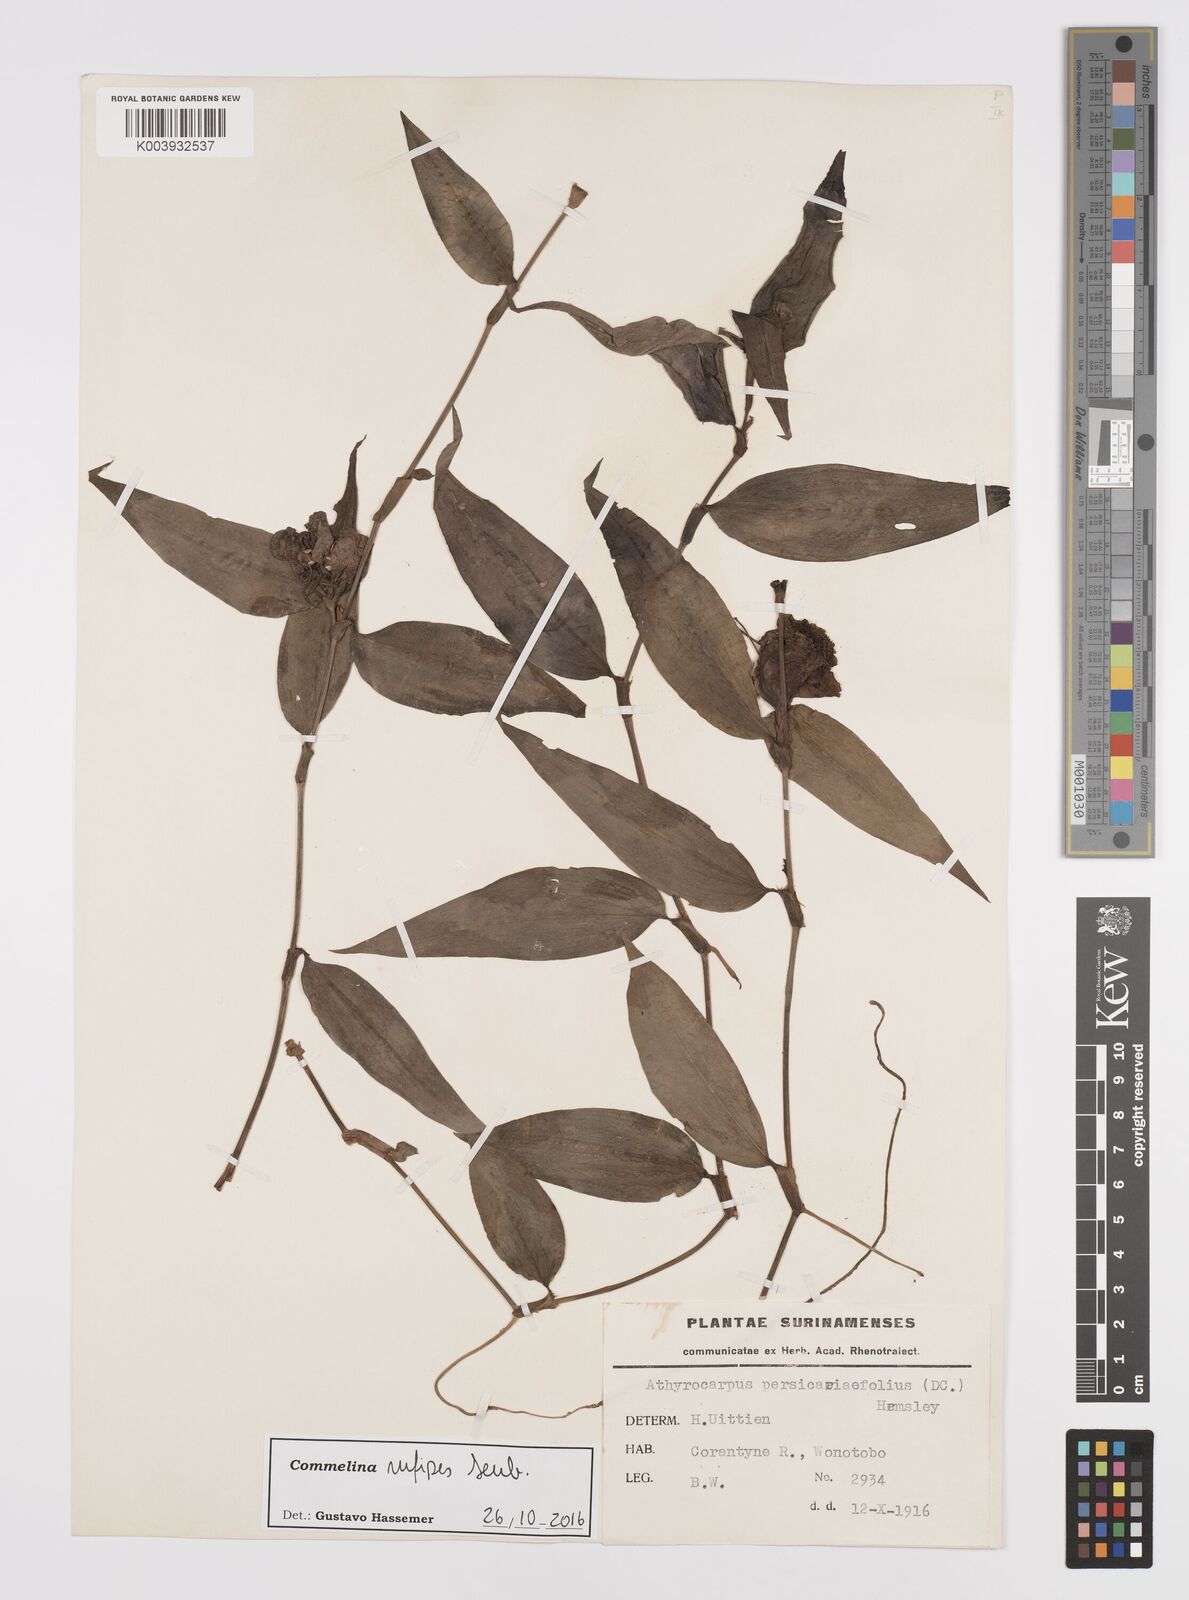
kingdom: Plantae
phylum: Tracheophyta
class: Liliopsida
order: Commelinales
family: Commelinaceae
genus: Commelina
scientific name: Commelina rufipes
